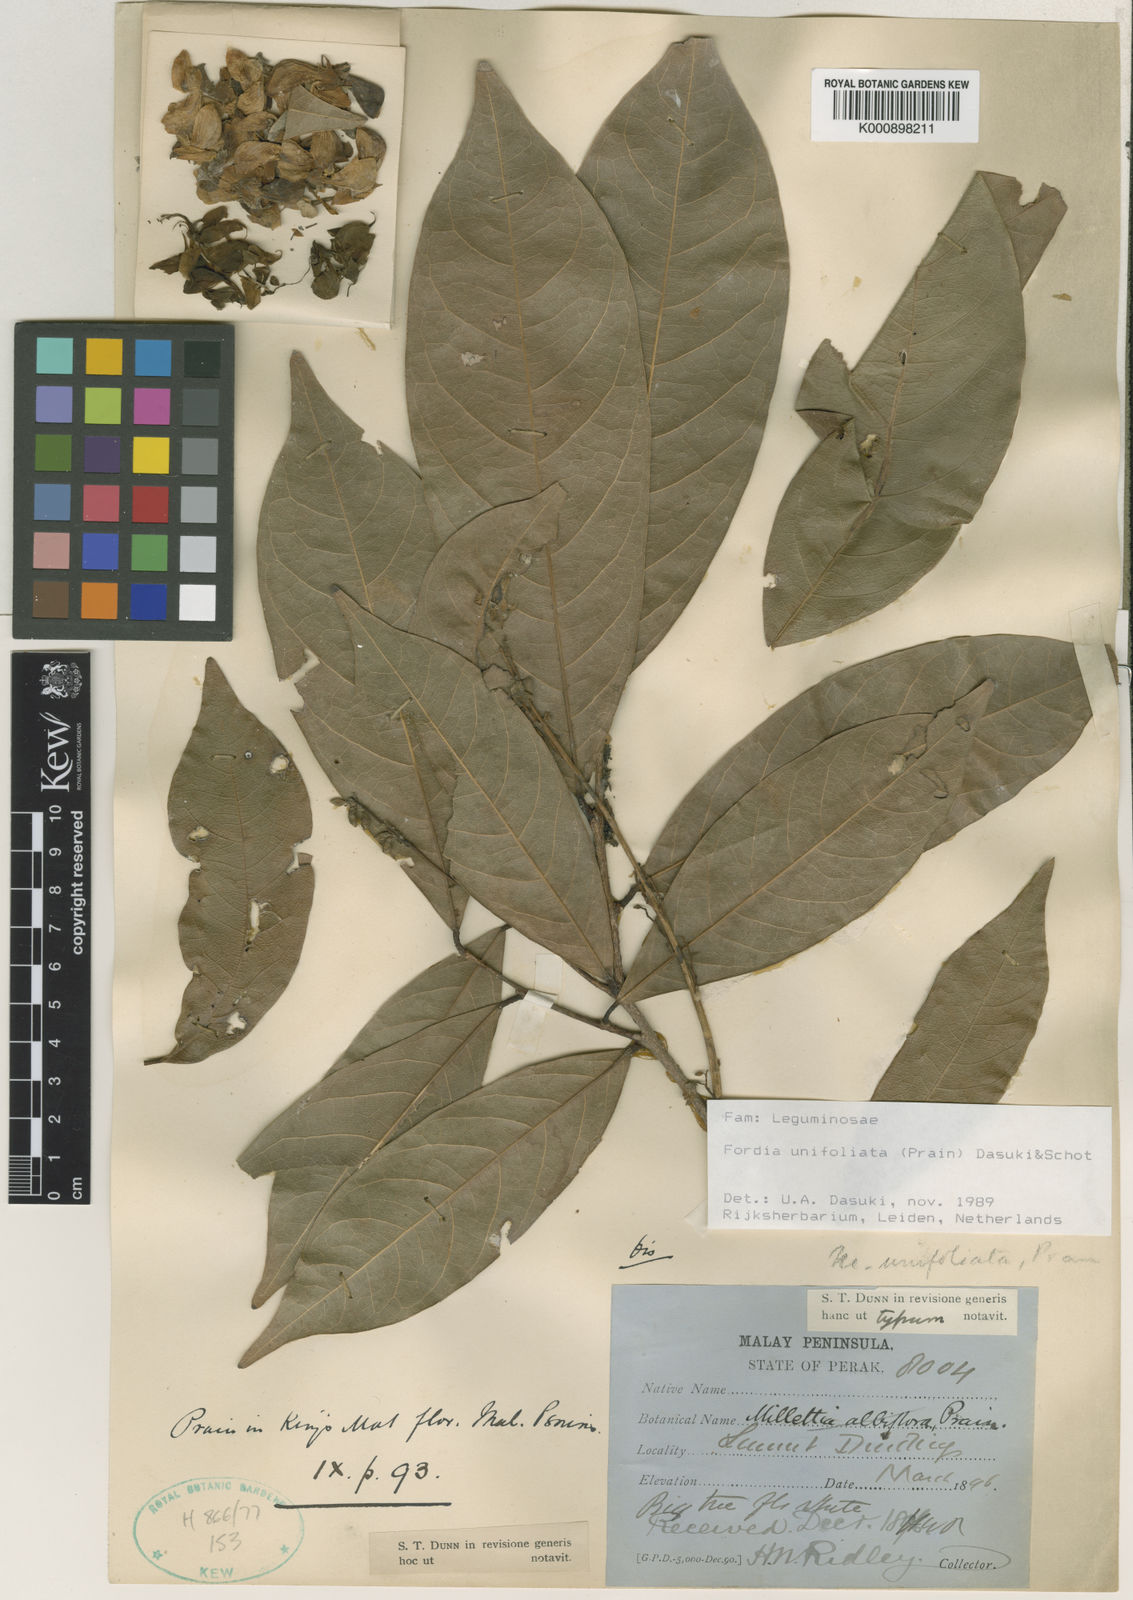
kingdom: Plantae
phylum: Tracheophyta
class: Magnoliopsida
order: Fabales
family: Fabaceae
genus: Imbralyx
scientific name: Imbralyx unifoliatus
